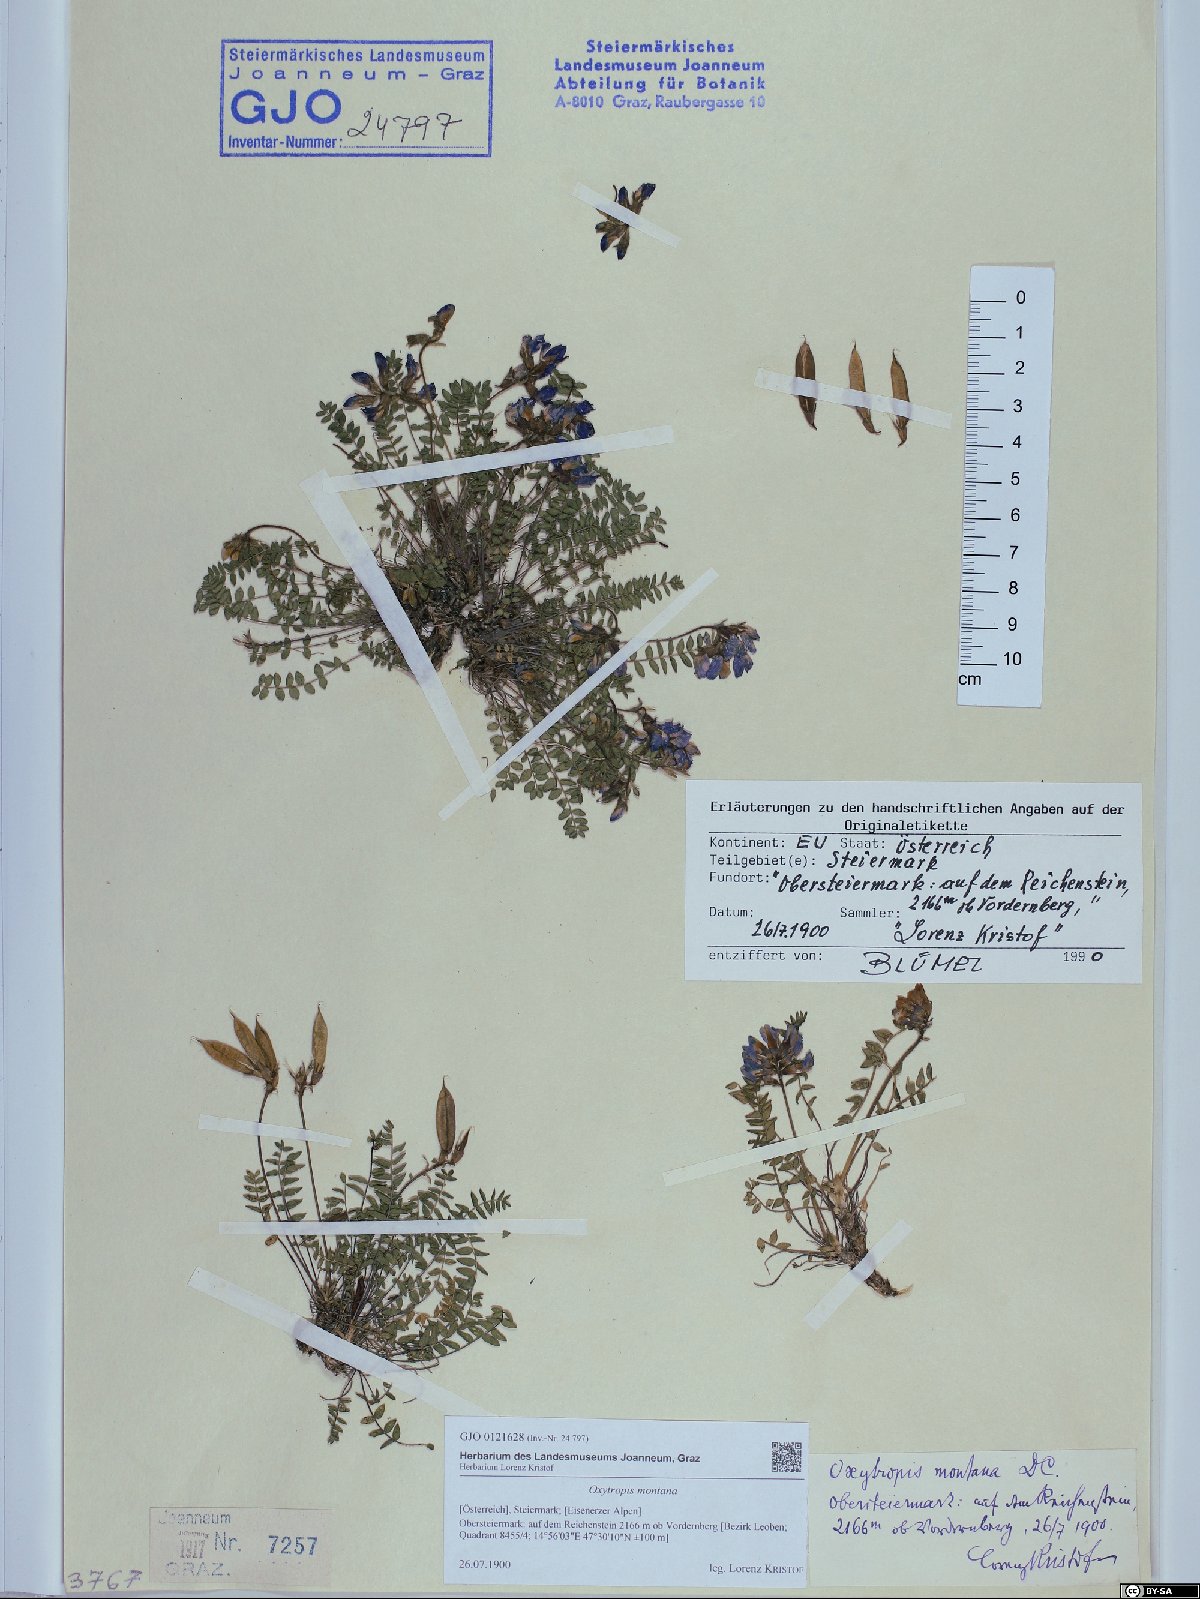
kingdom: Plantae
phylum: Tracheophyta
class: Magnoliopsida
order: Fabales
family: Fabaceae
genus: Oxytropis
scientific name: Oxytropis montana
